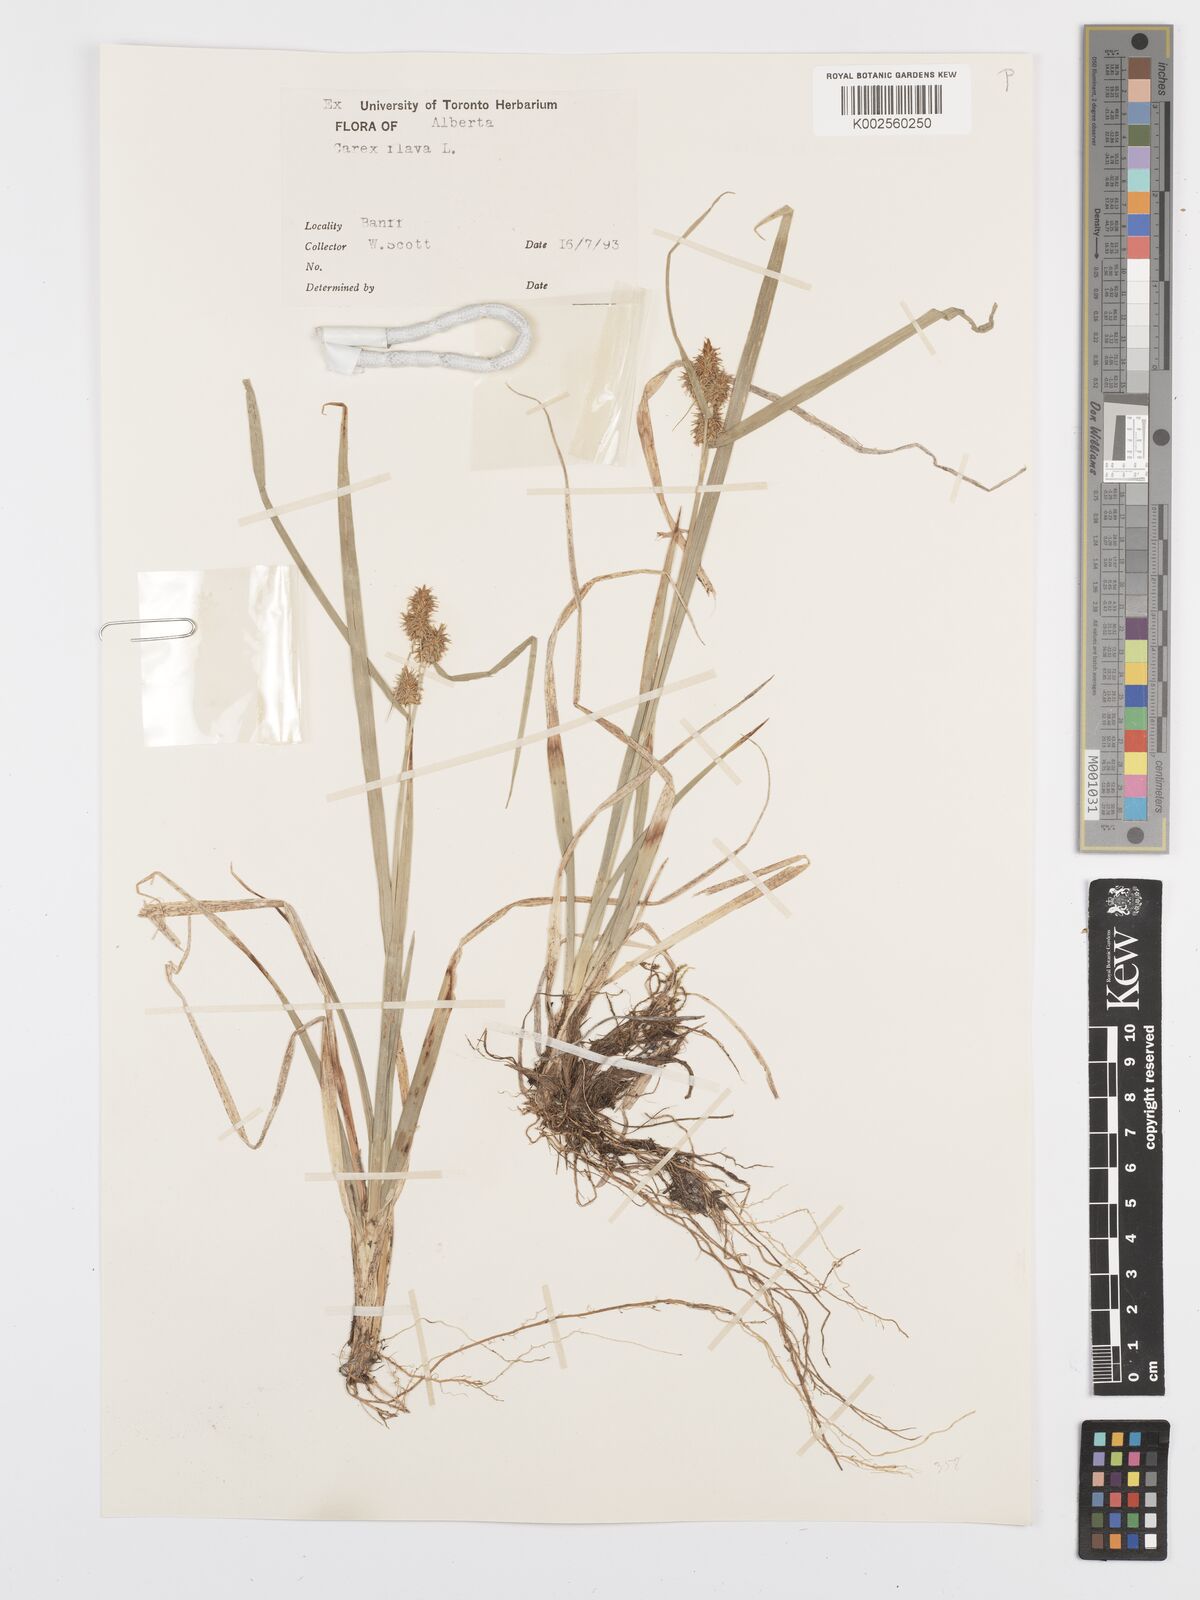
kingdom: Plantae
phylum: Tracheophyta
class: Liliopsida
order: Poales
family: Cyperaceae
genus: Carex
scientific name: Carex flava
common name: Large yellow-sedge
